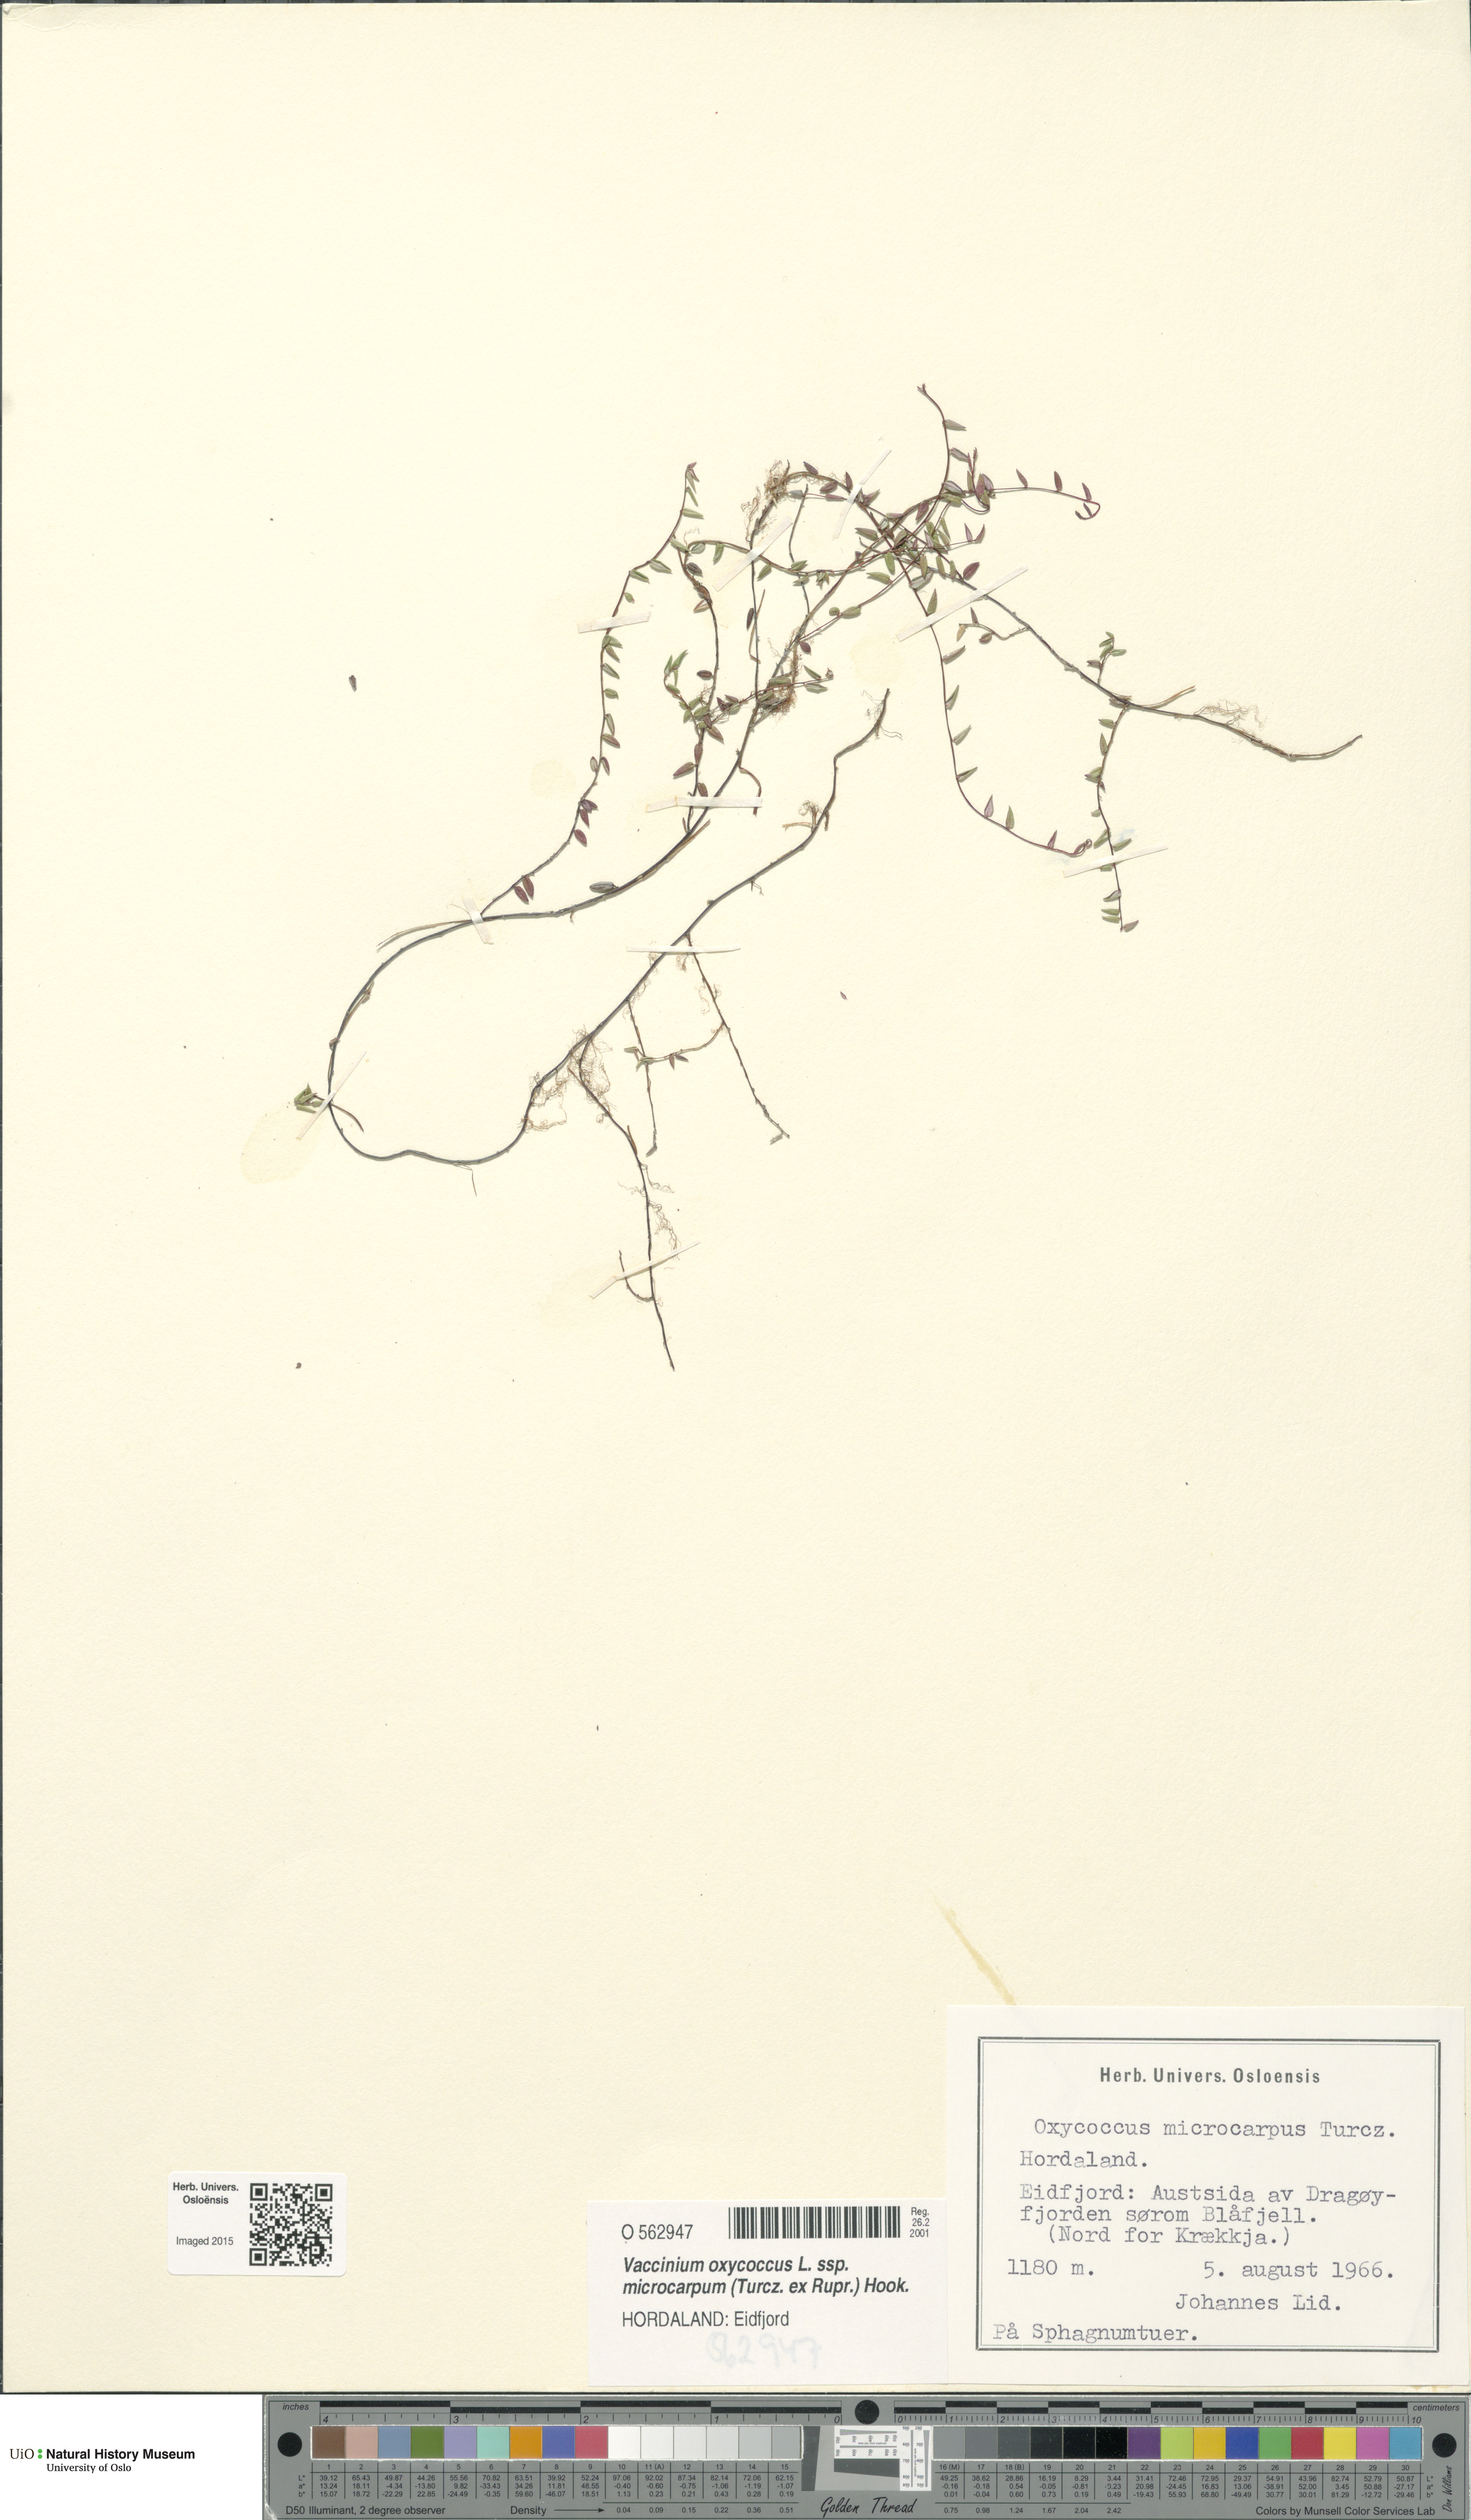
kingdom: Plantae
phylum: Tracheophyta
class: Magnoliopsida
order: Ericales
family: Ericaceae
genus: Vaccinium
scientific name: Vaccinium microcarpum
